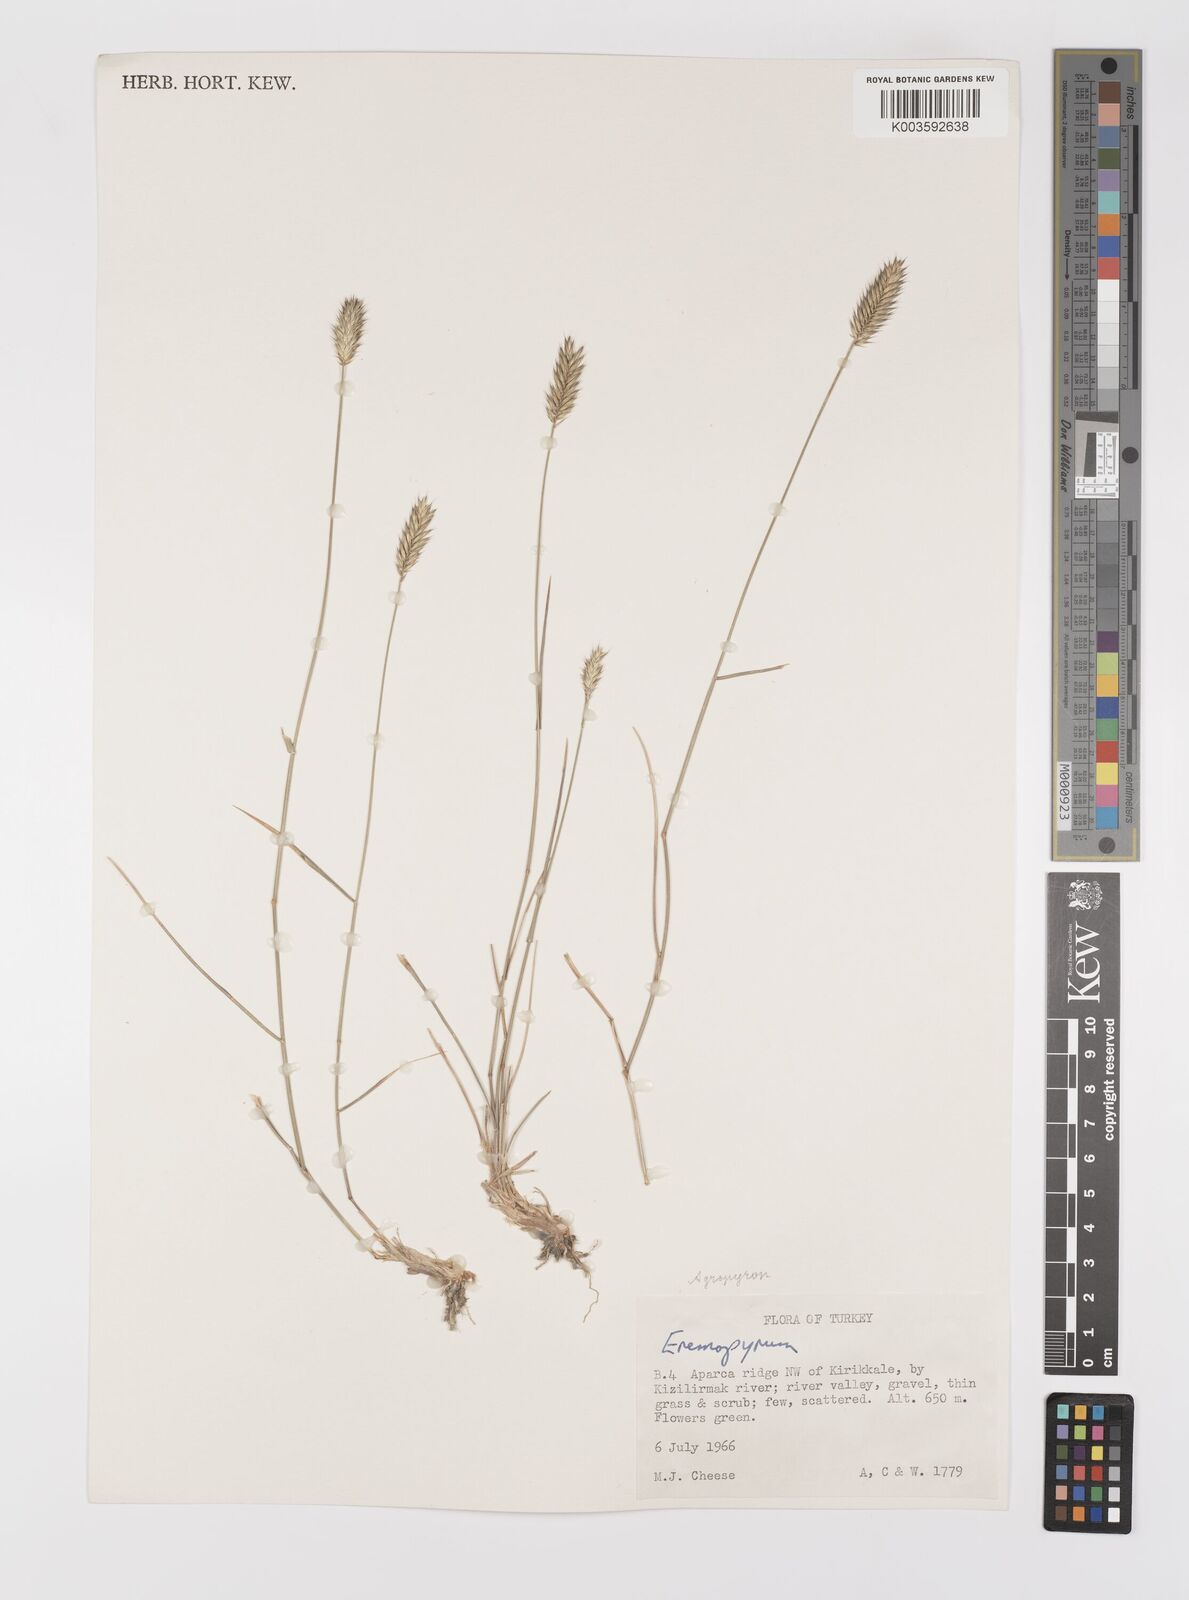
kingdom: Plantae
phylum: Tracheophyta
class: Liliopsida
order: Poales
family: Poaceae
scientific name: Poaceae
